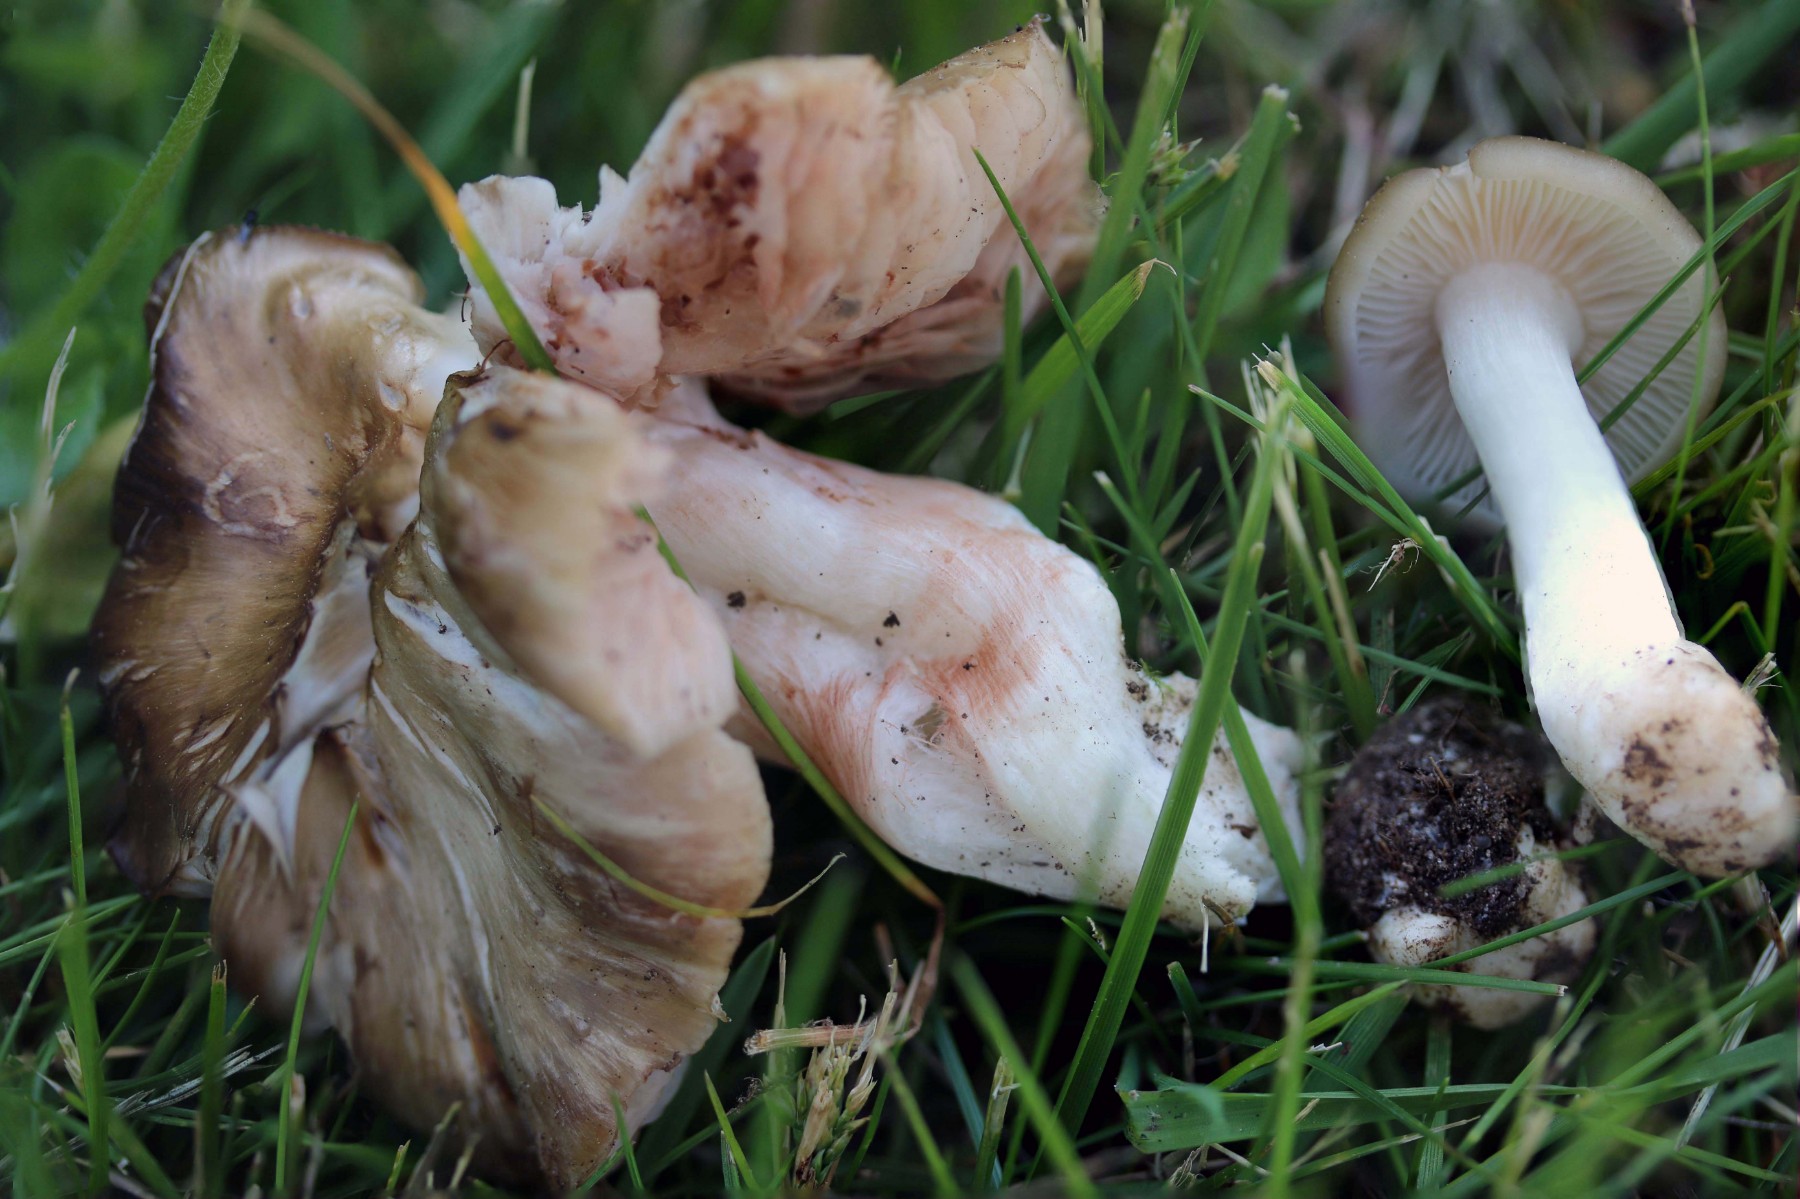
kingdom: Fungi
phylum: Basidiomycota
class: Agaricomycetes
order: Agaricales
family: Entolomataceae
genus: Entoloma
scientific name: Entoloma
